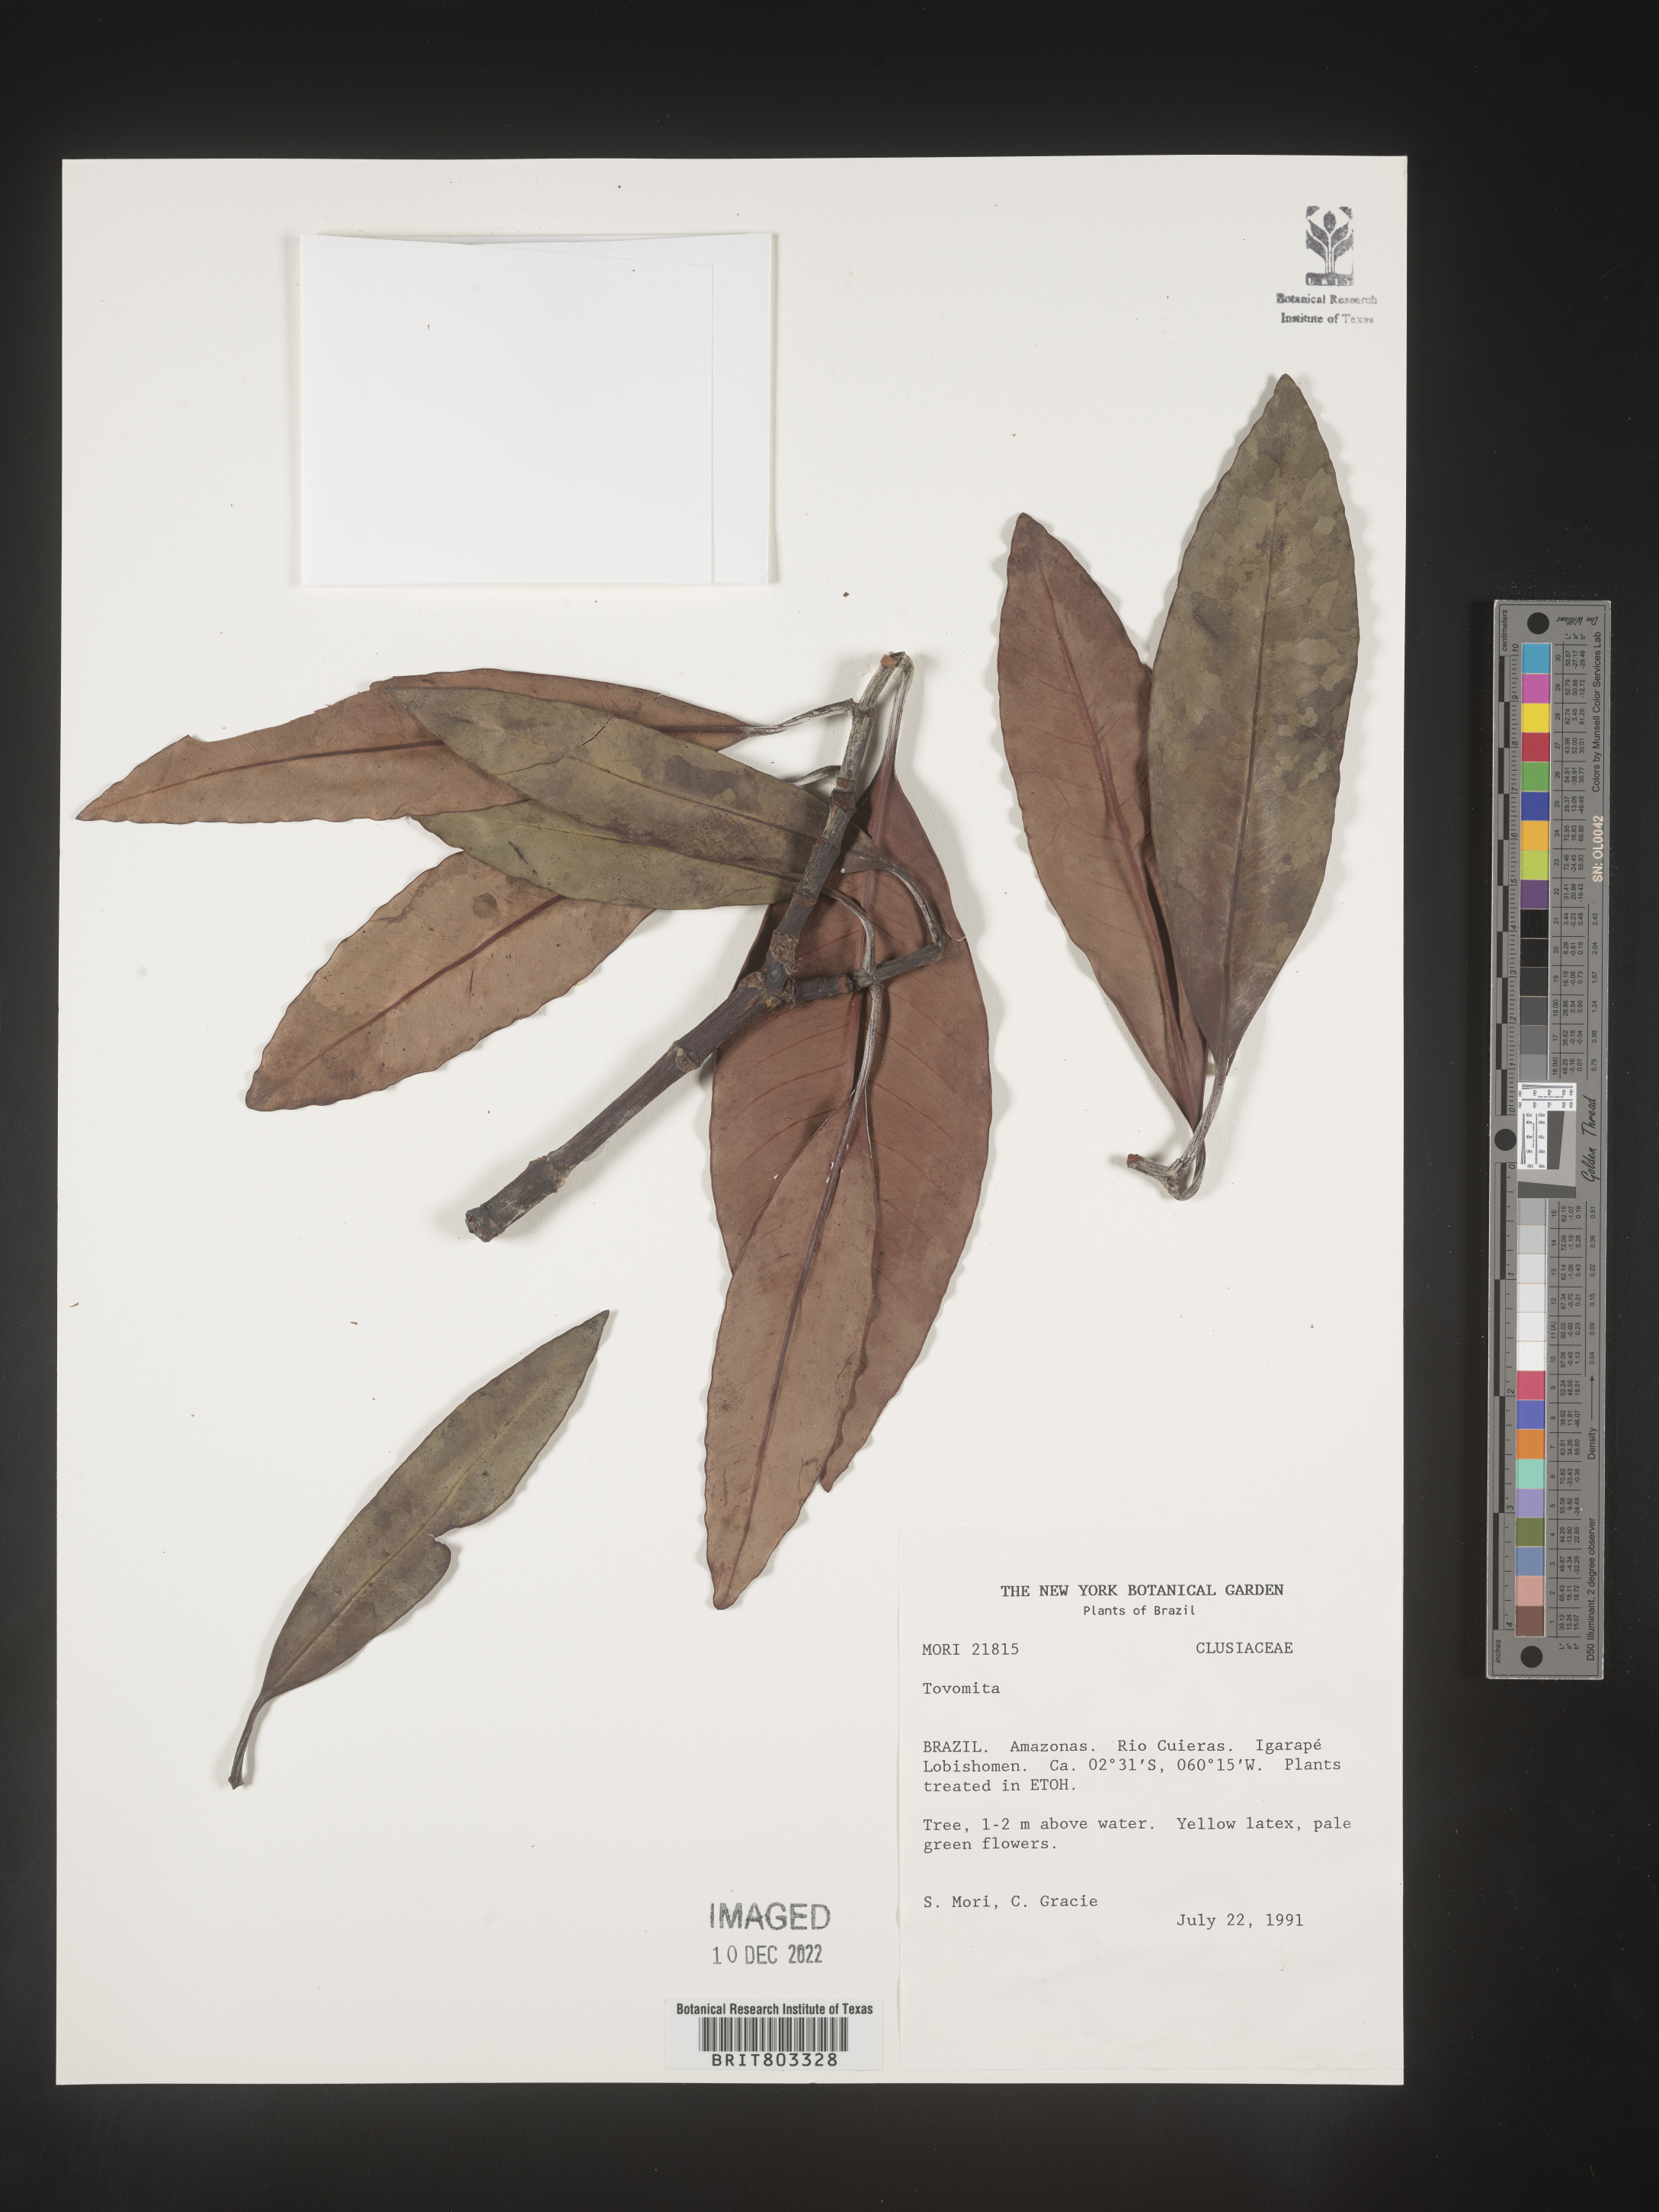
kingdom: Plantae
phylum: Tracheophyta
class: Magnoliopsida
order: Malpighiales
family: Clusiaceae
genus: Tovomita
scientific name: Tovomita
